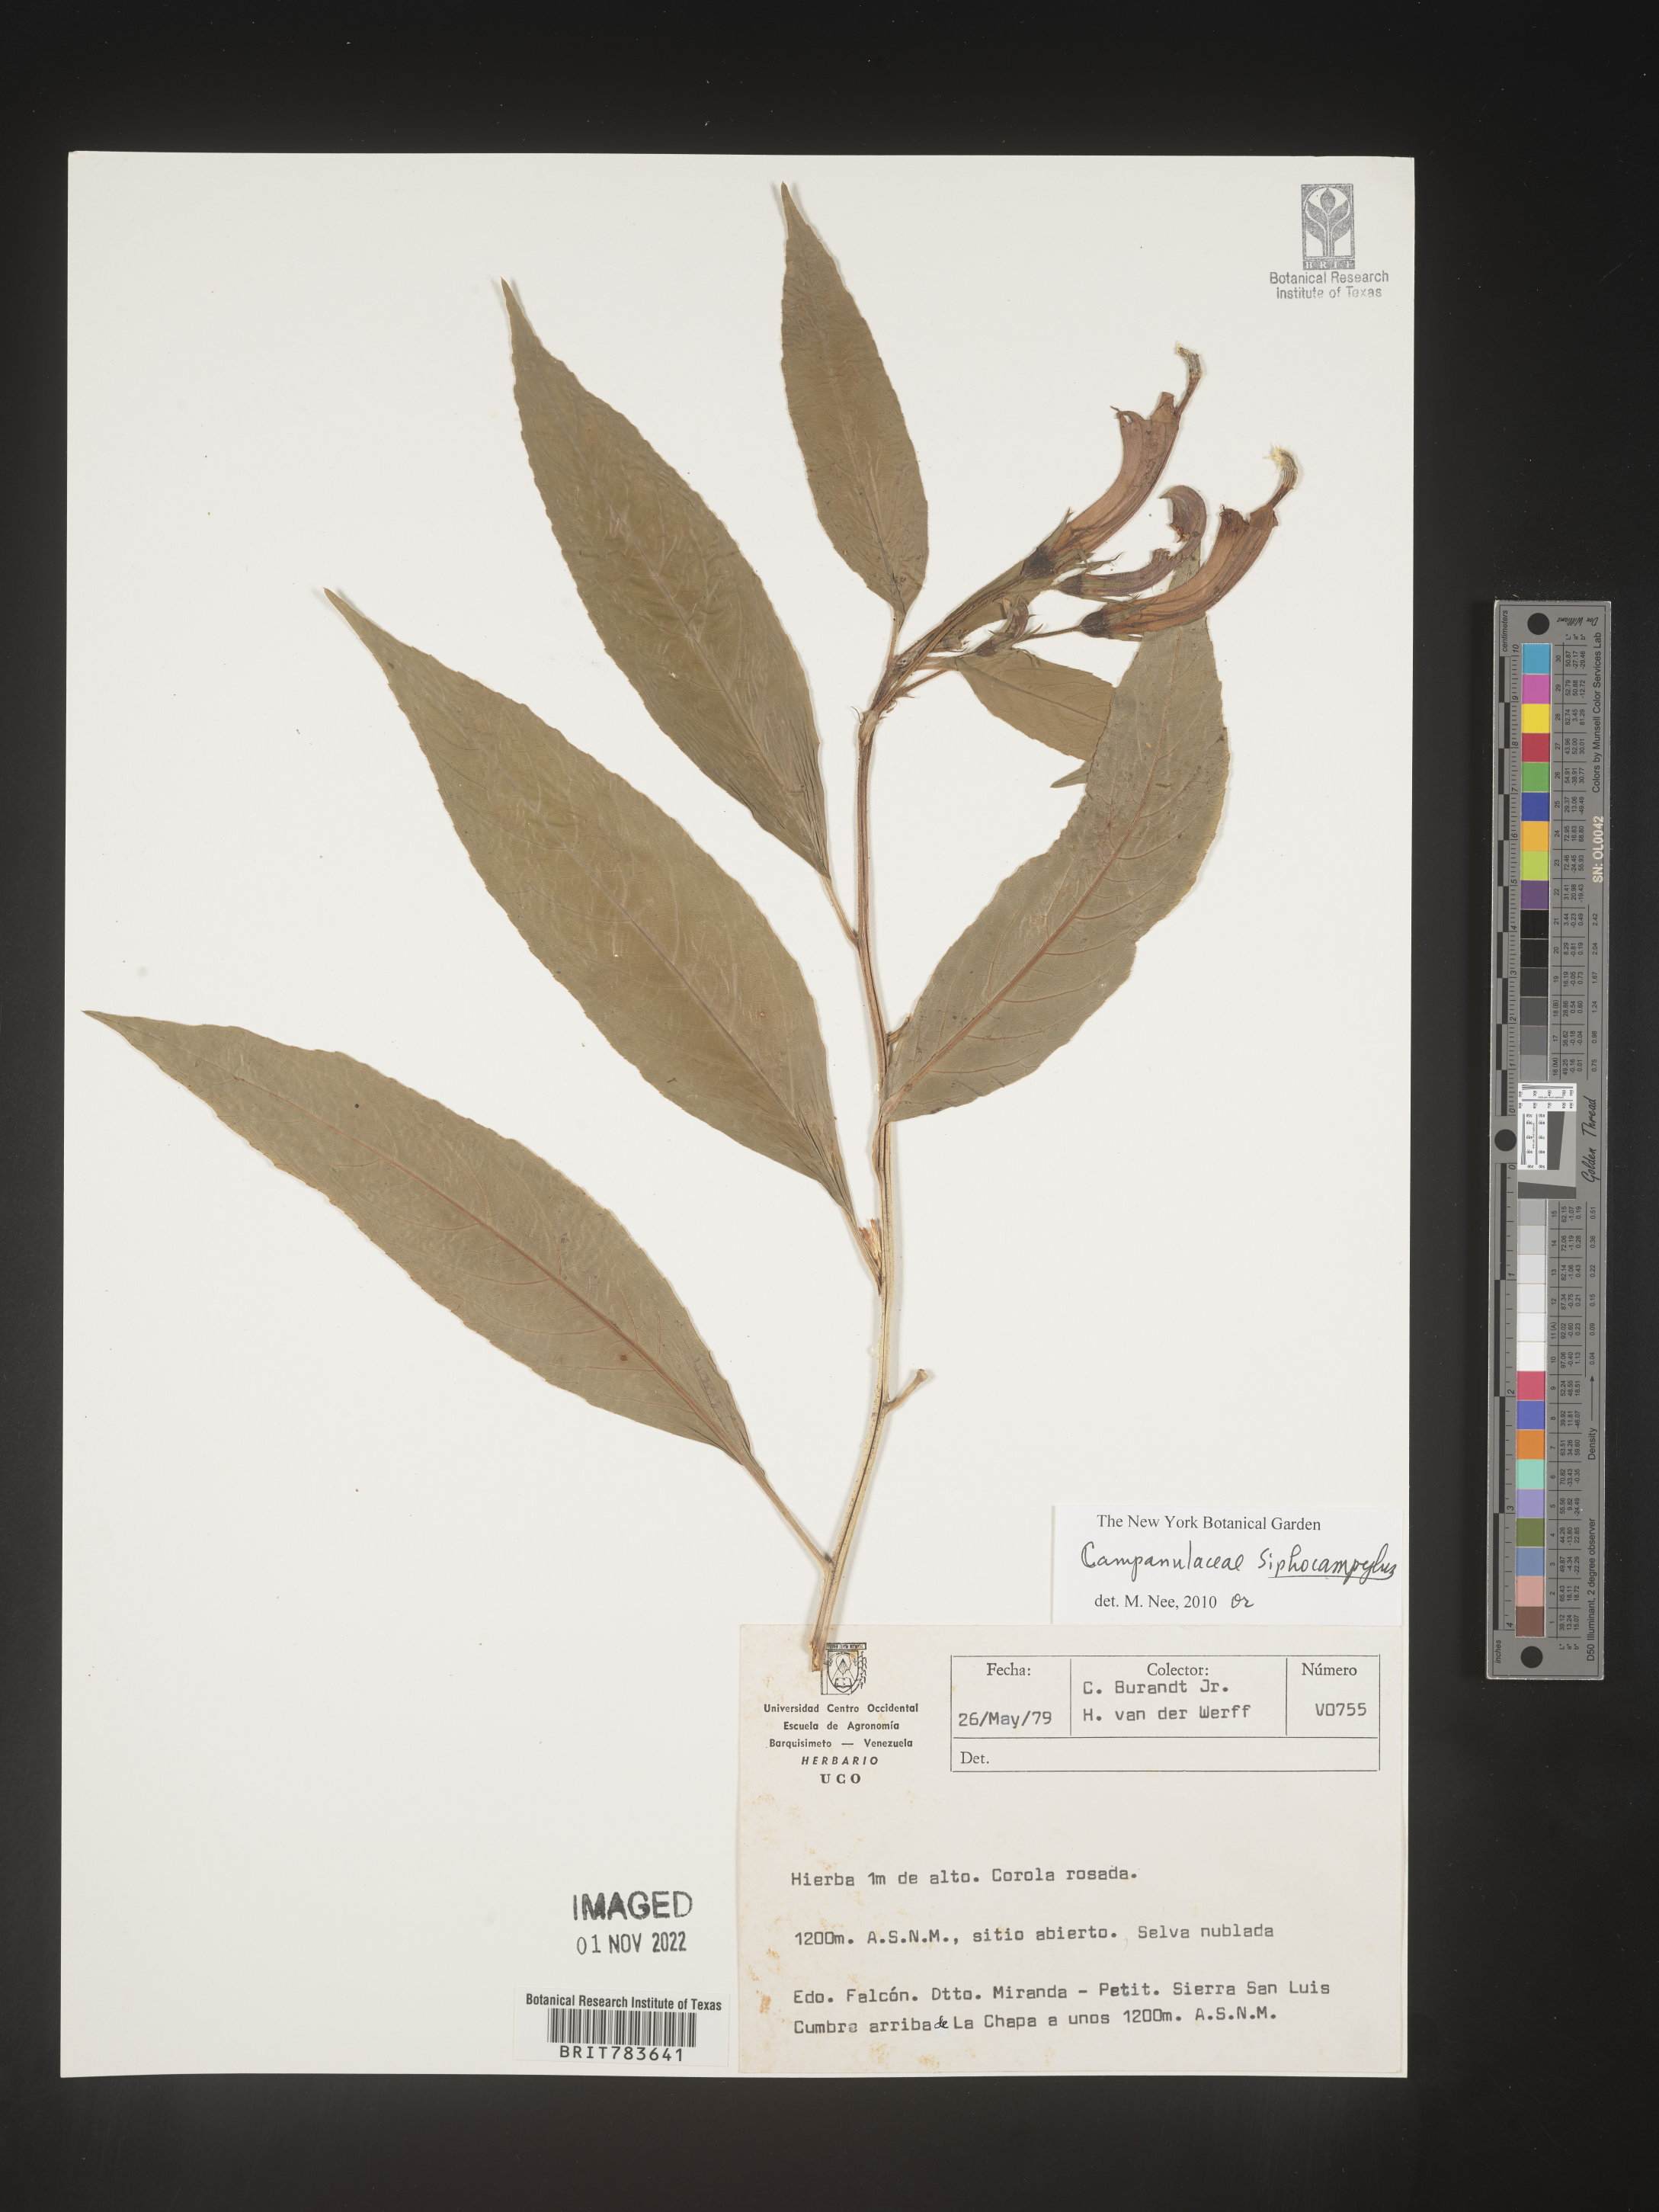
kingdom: Plantae
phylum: Tracheophyta
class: Magnoliopsida
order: Asterales
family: Campanulaceae
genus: Siphocampylus
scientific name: Siphocampylus
